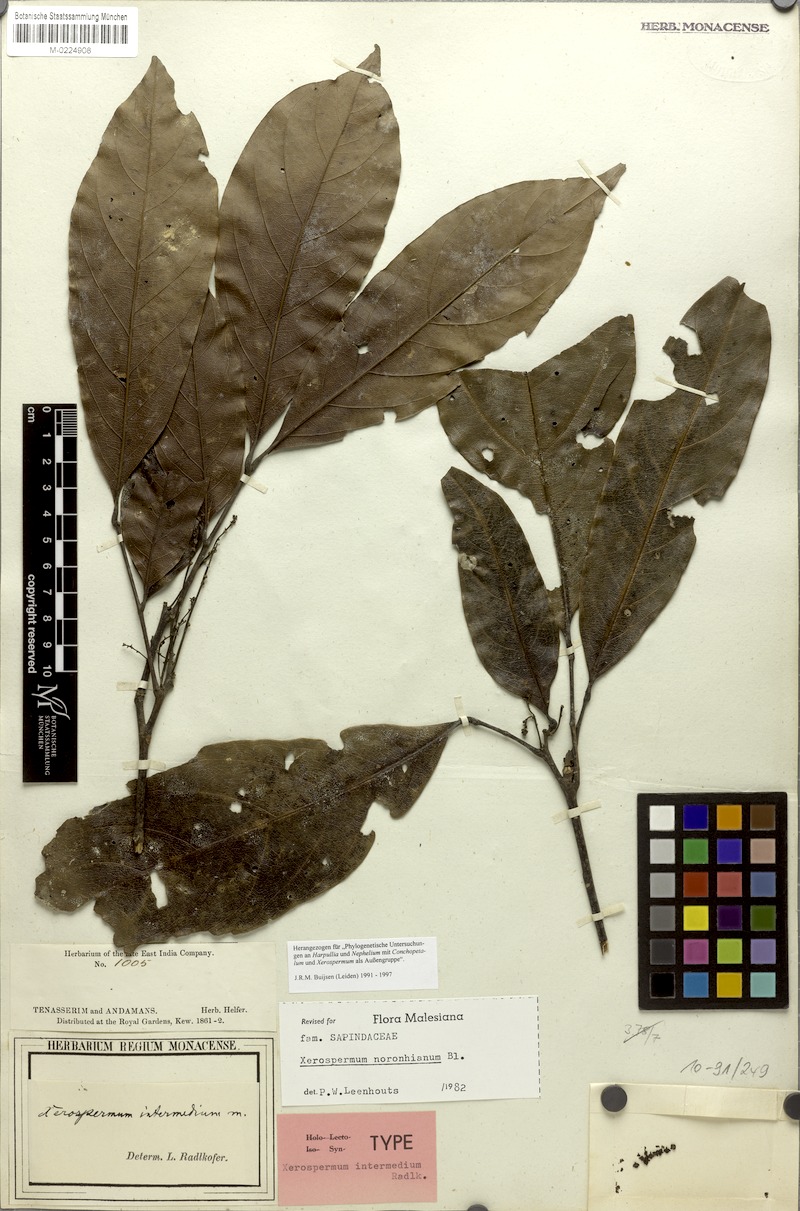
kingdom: Plantae
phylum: Tracheophyta
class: Magnoliopsida
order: Sapindales
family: Sapindaceae
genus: Xerospermum
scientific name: Xerospermum noronhianum
